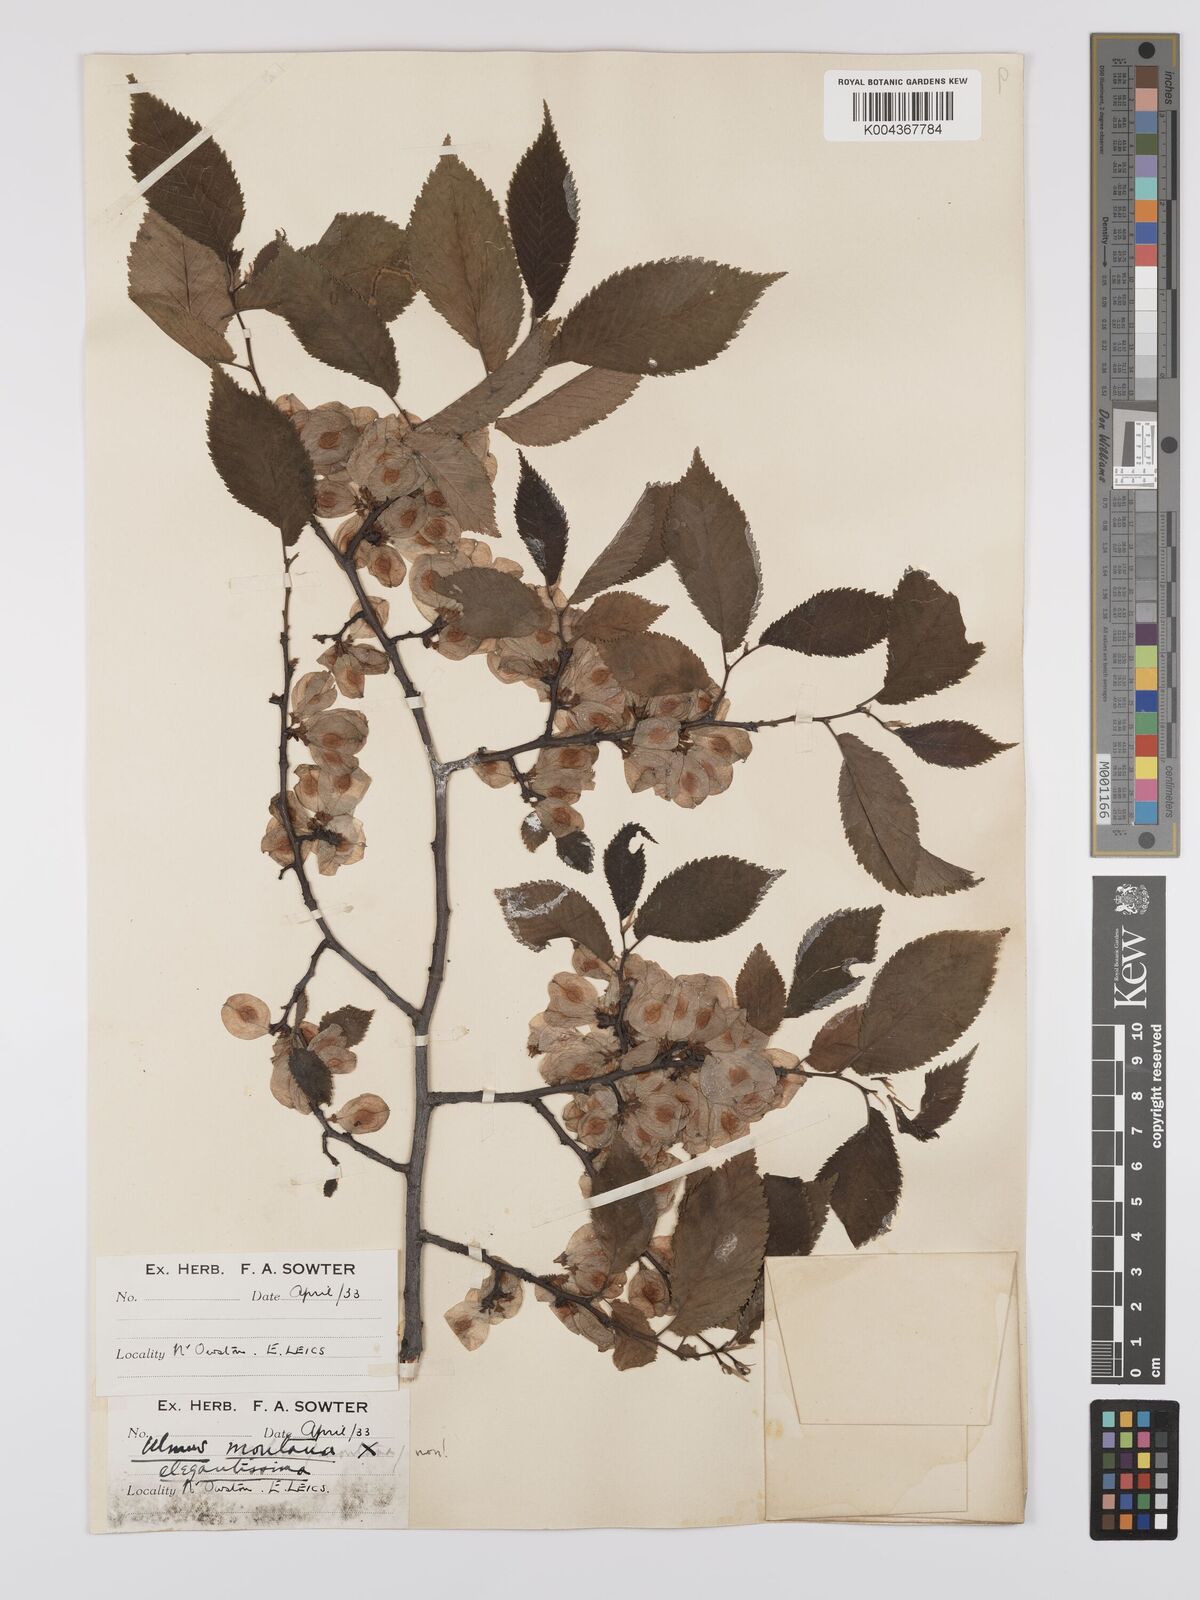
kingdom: Plantae
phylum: Tracheophyta
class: Magnoliopsida
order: Rosales
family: Ulmaceae
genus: Ulmus
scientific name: Ulmus
